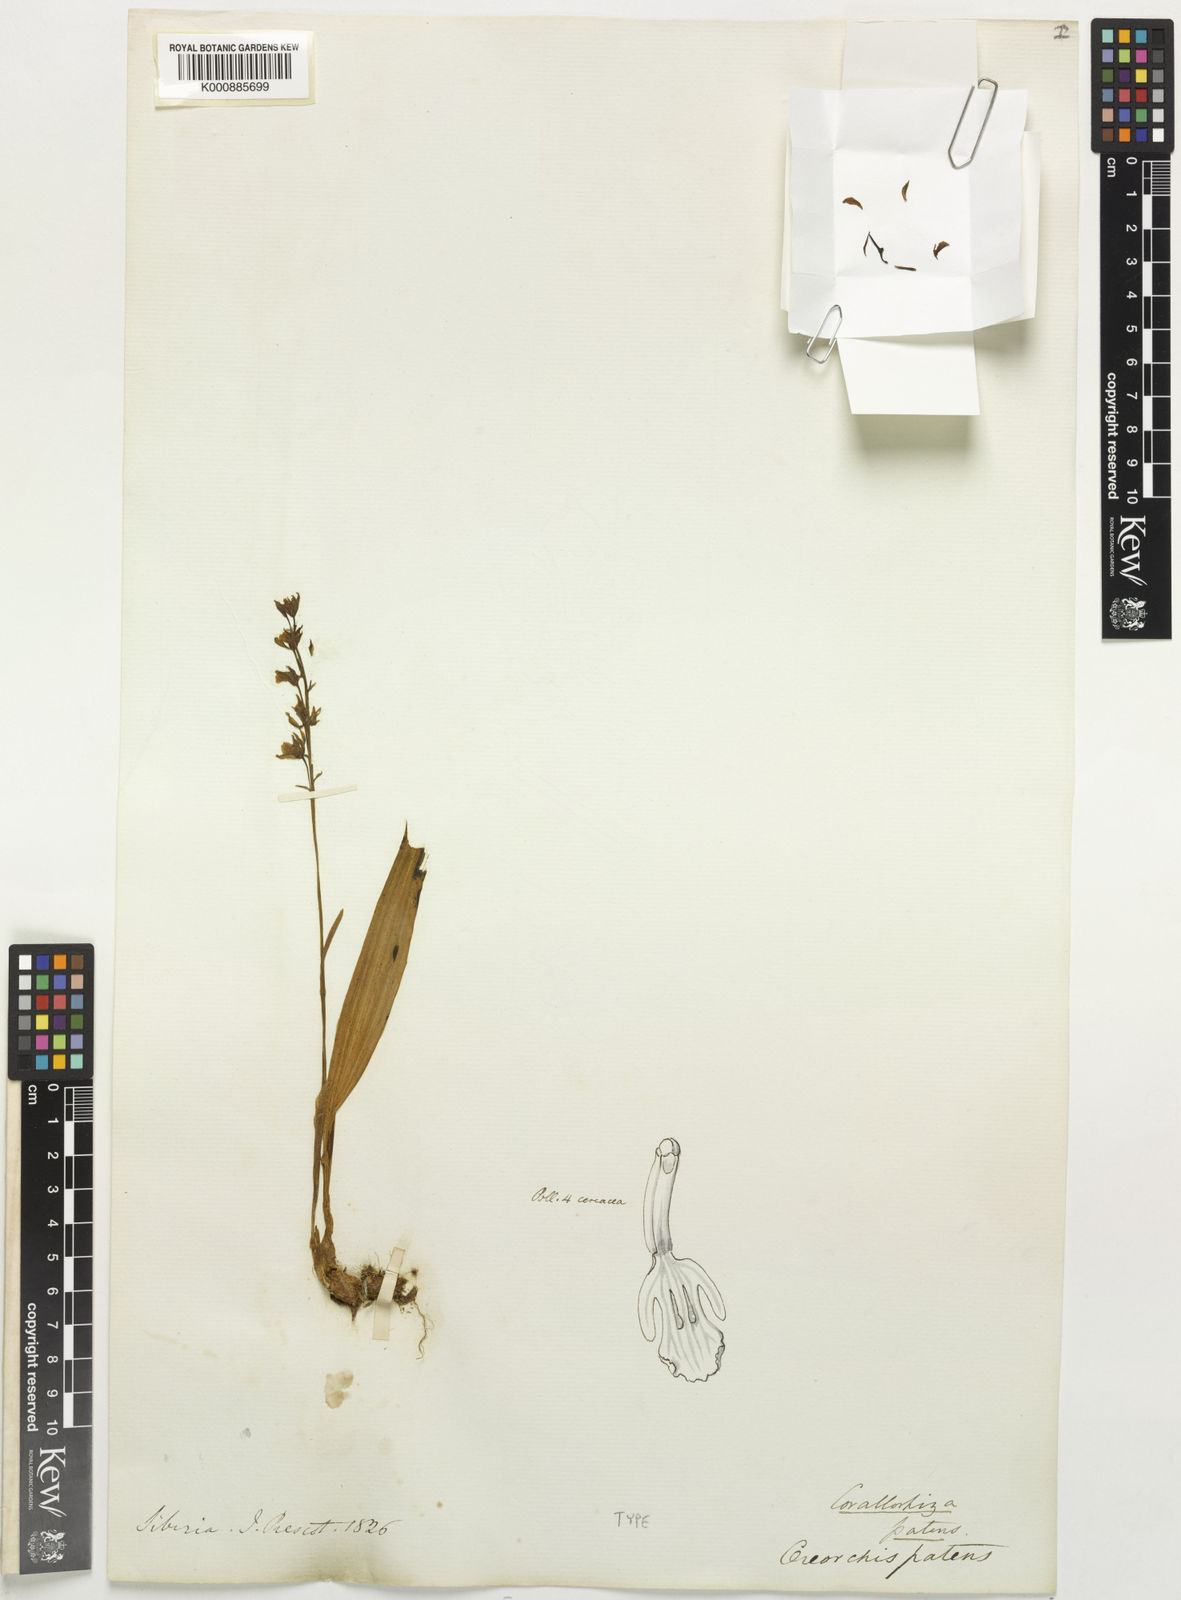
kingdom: Plantae
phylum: Tracheophyta
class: Liliopsida
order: Asparagales
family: Orchidaceae
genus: Oreorchis
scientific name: Oreorchis patens
